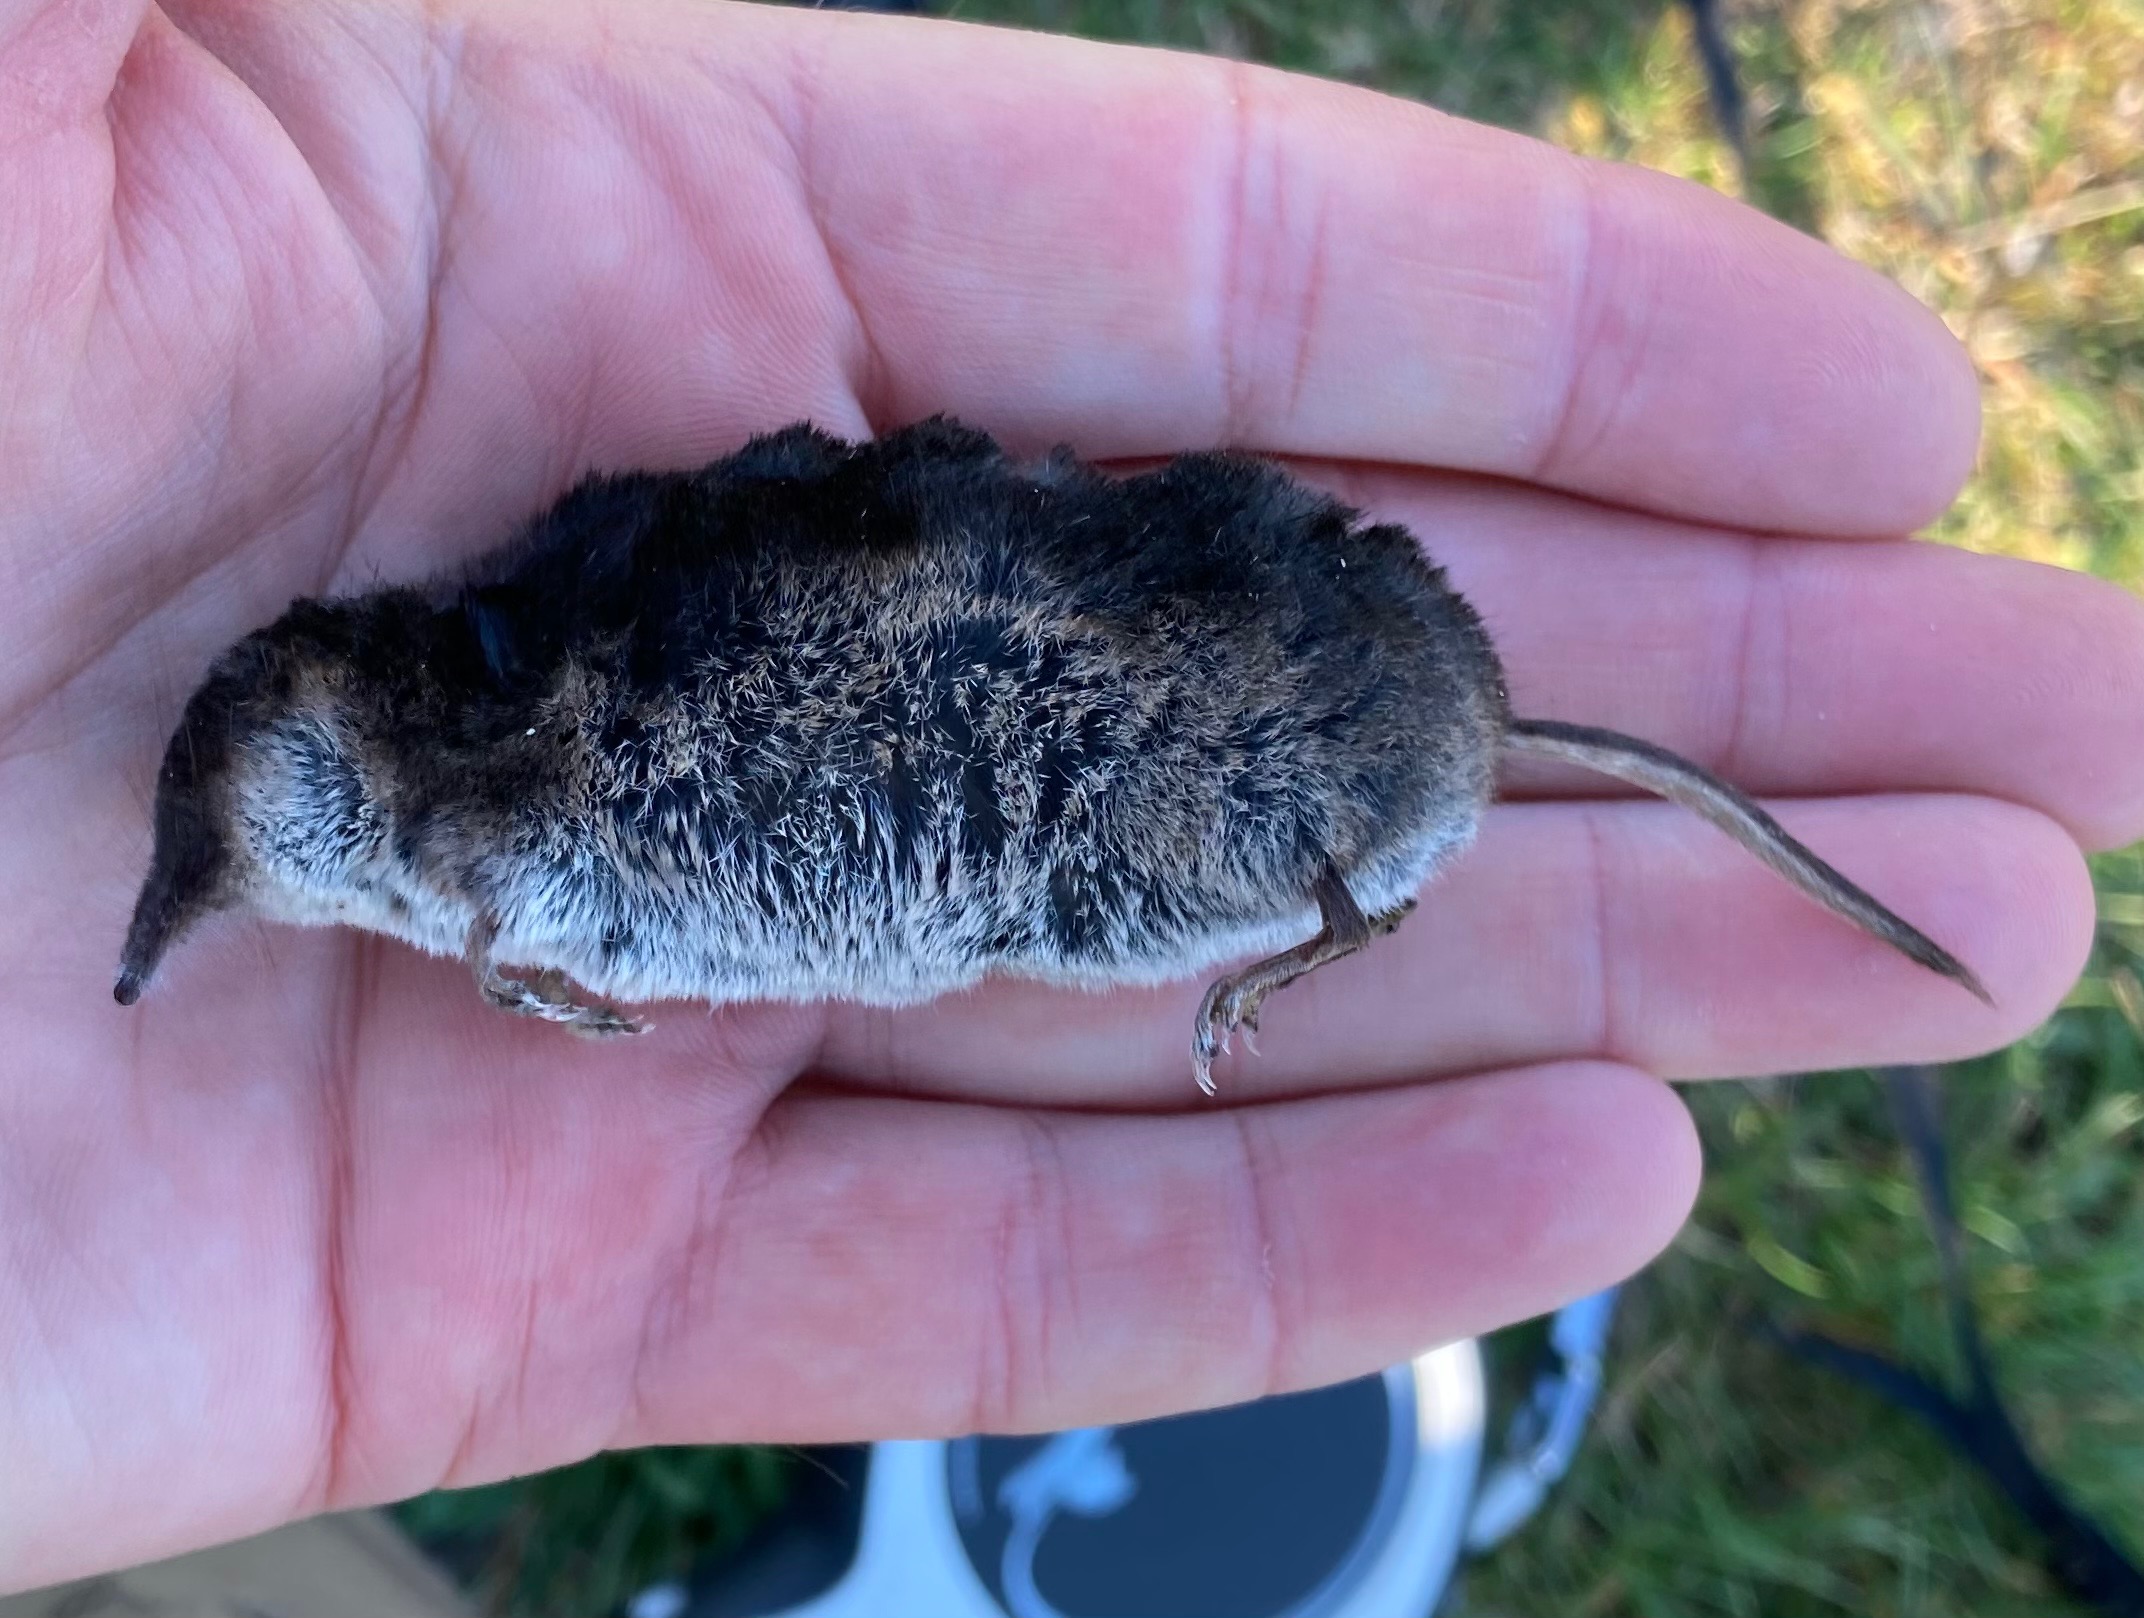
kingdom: Animalia
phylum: Chordata
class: Mammalia
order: Soricomorpha
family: Soricidae
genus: Sorex
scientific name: Sorex araneus
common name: Almindelig spidsmus
